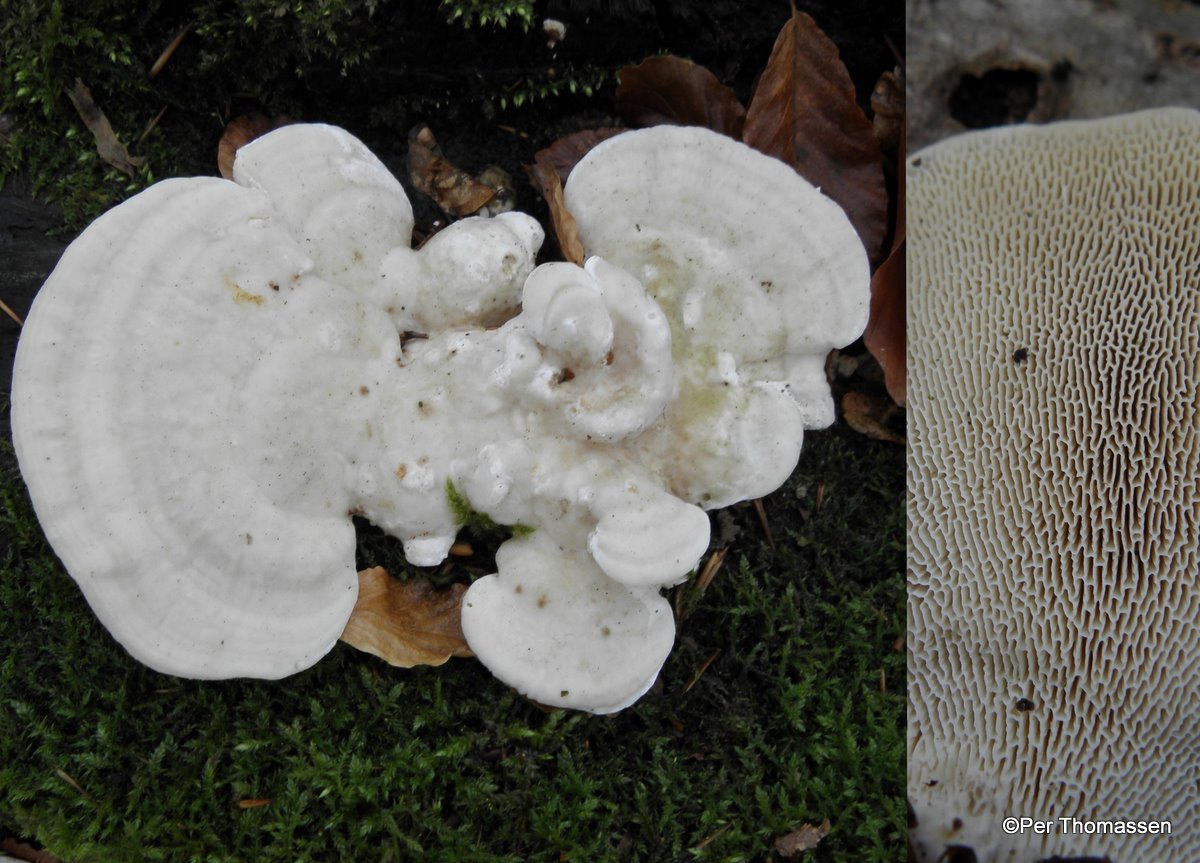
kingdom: Fungi
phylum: Basidiomycota
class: Agaricomycetes
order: Polyporales
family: Polyporaceae
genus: Trametes
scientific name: Trametes gibbosa
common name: puklet læderporesvamp
